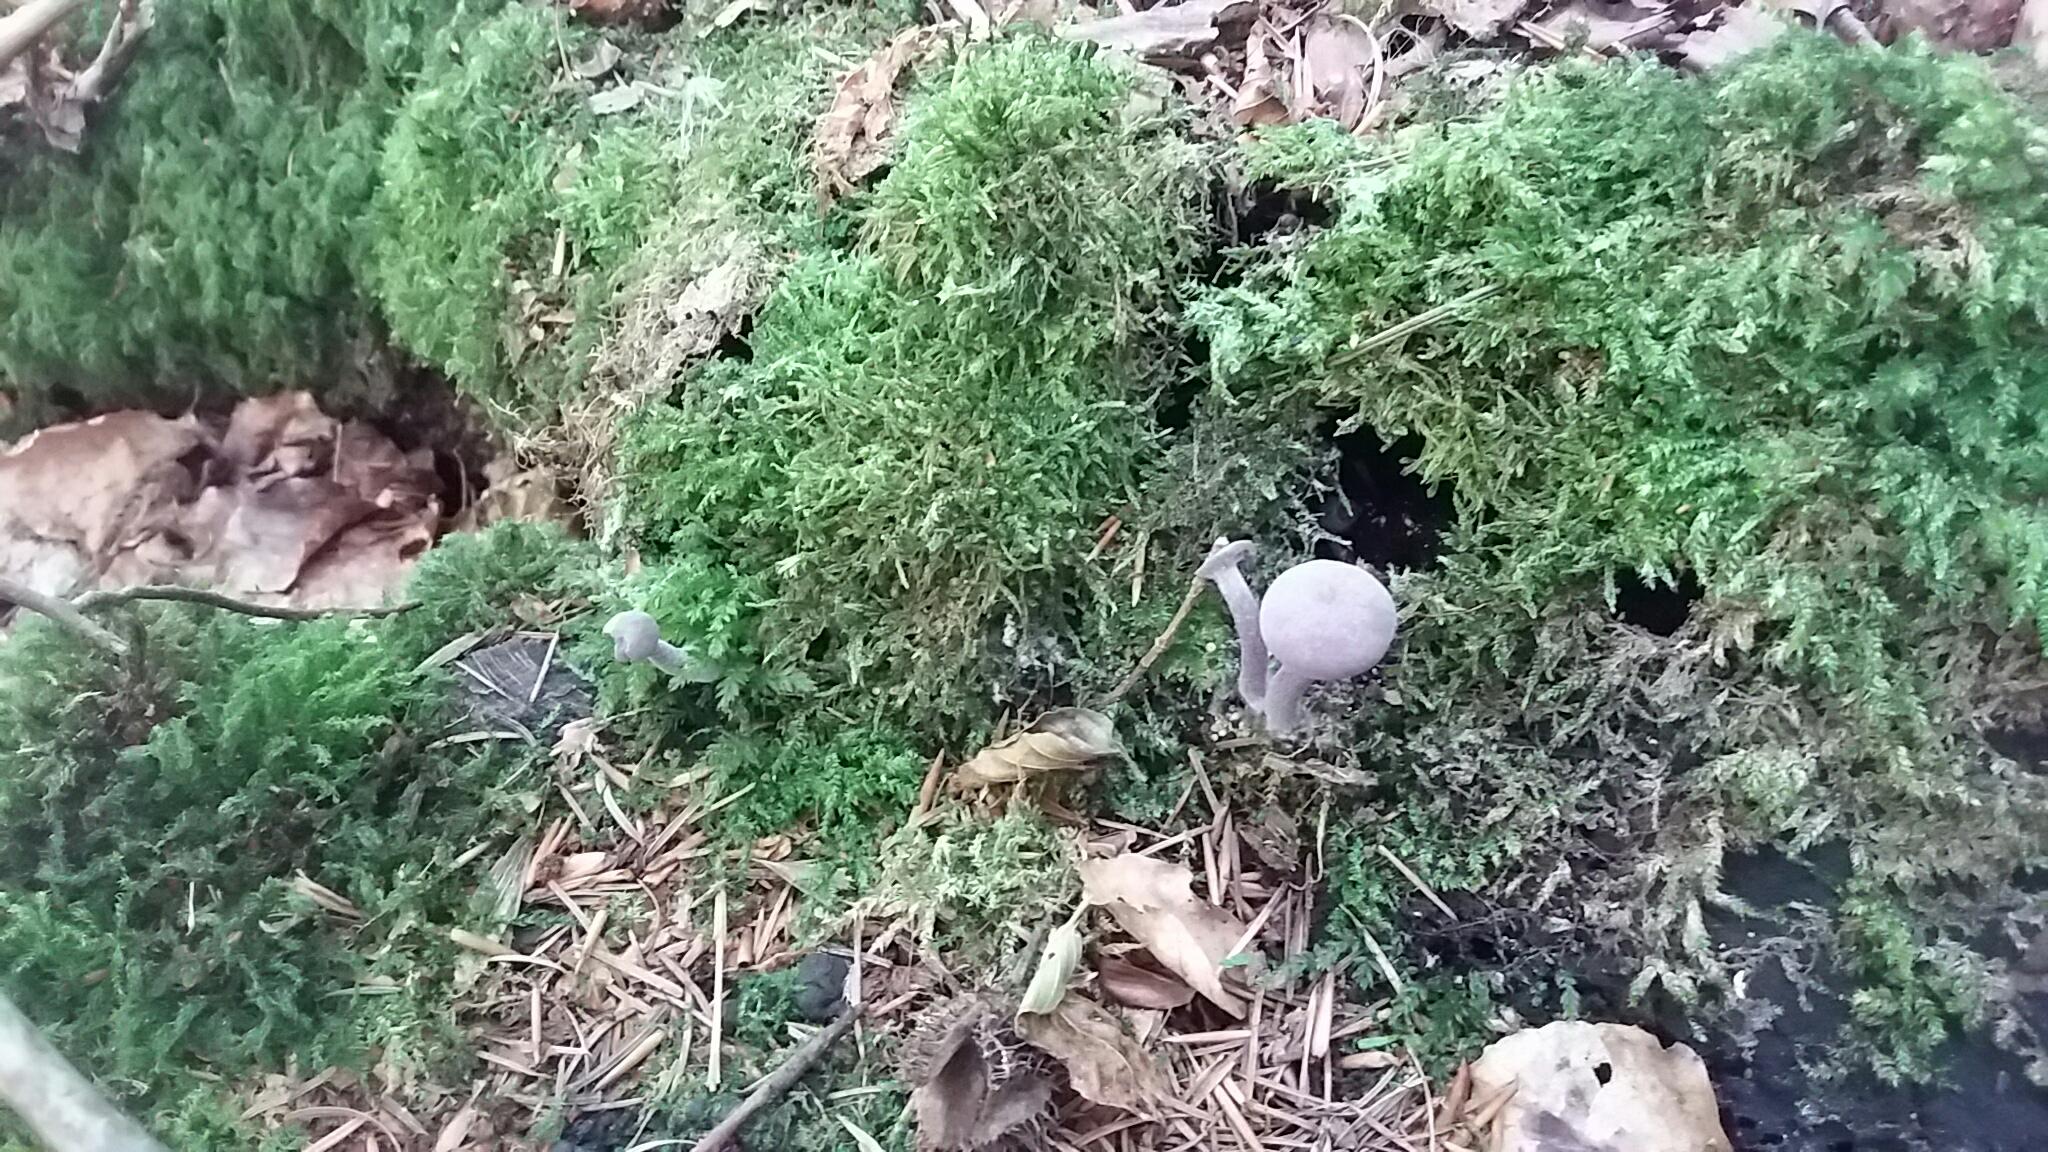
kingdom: Fungi
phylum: Basidiomycota
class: Agaricomycetes
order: Agaricales
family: Hydnangiaceae
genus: Laccaria
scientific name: Laccaria amethystina
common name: violet ametysthat
